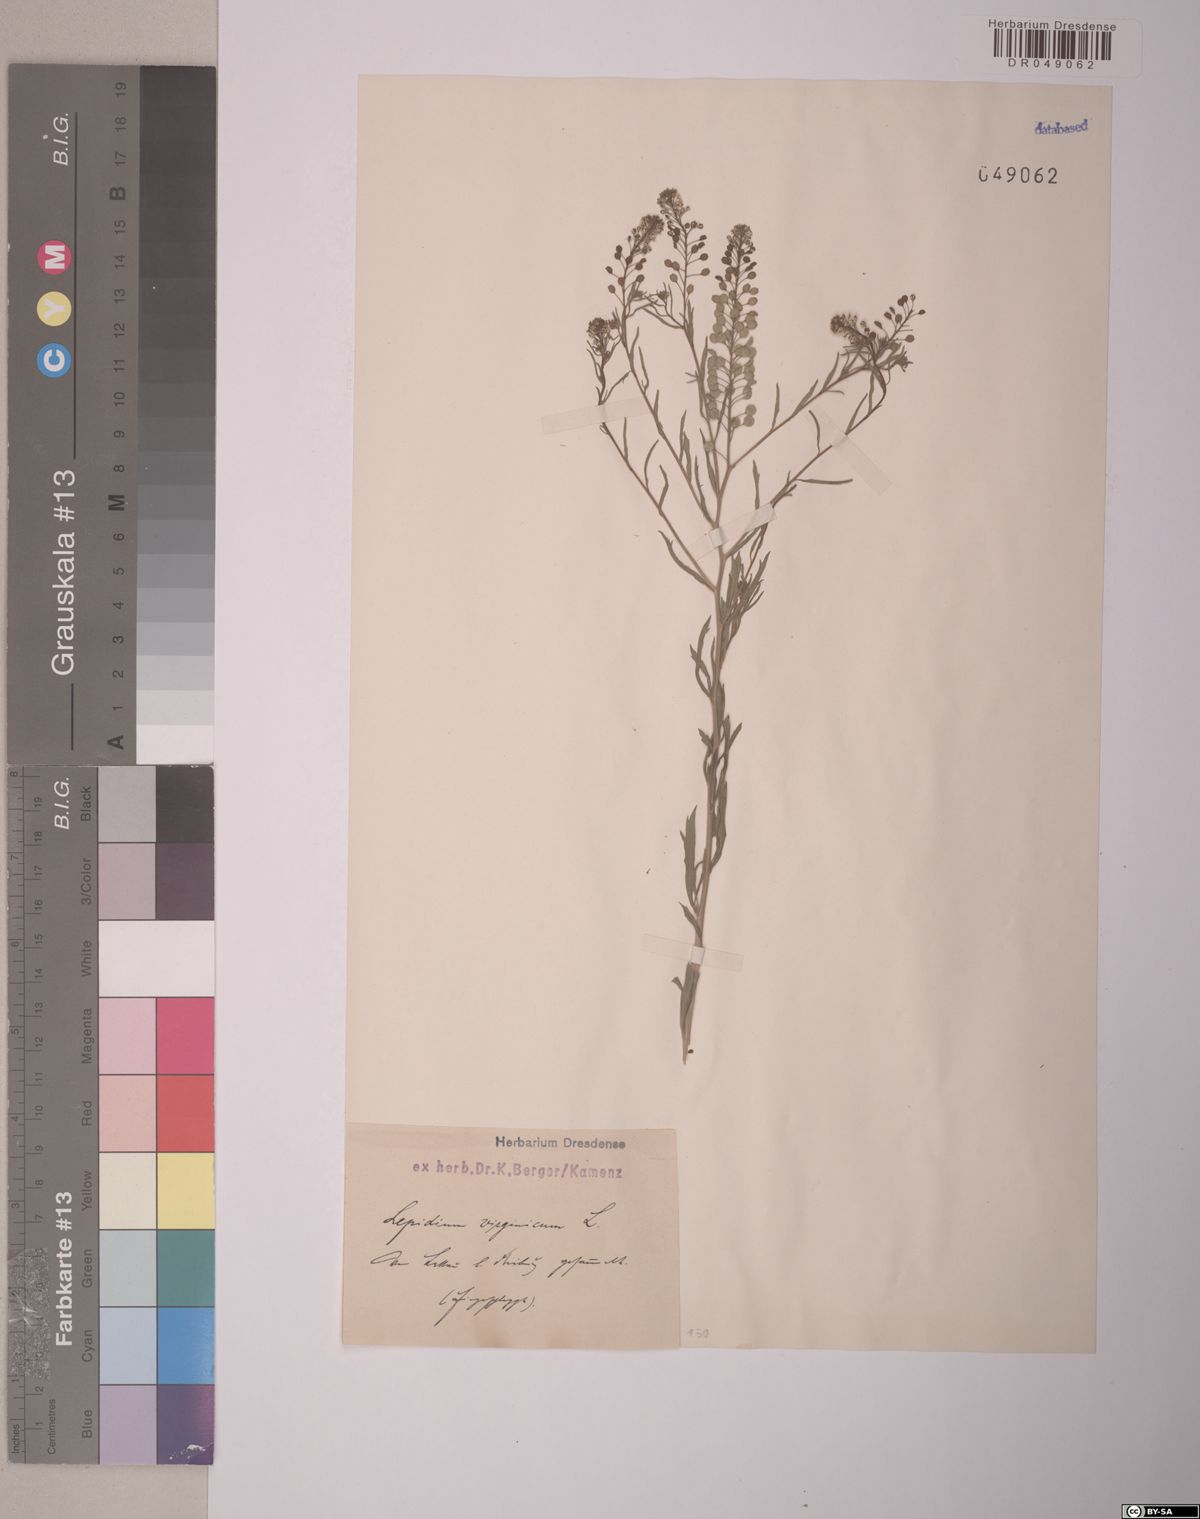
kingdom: Plantae
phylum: Tracheophyta
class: Magnoliopsida
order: Brassicales
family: Brassicaceae
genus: Lepidium
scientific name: Lepidium virginicum
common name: Least pepperwort
